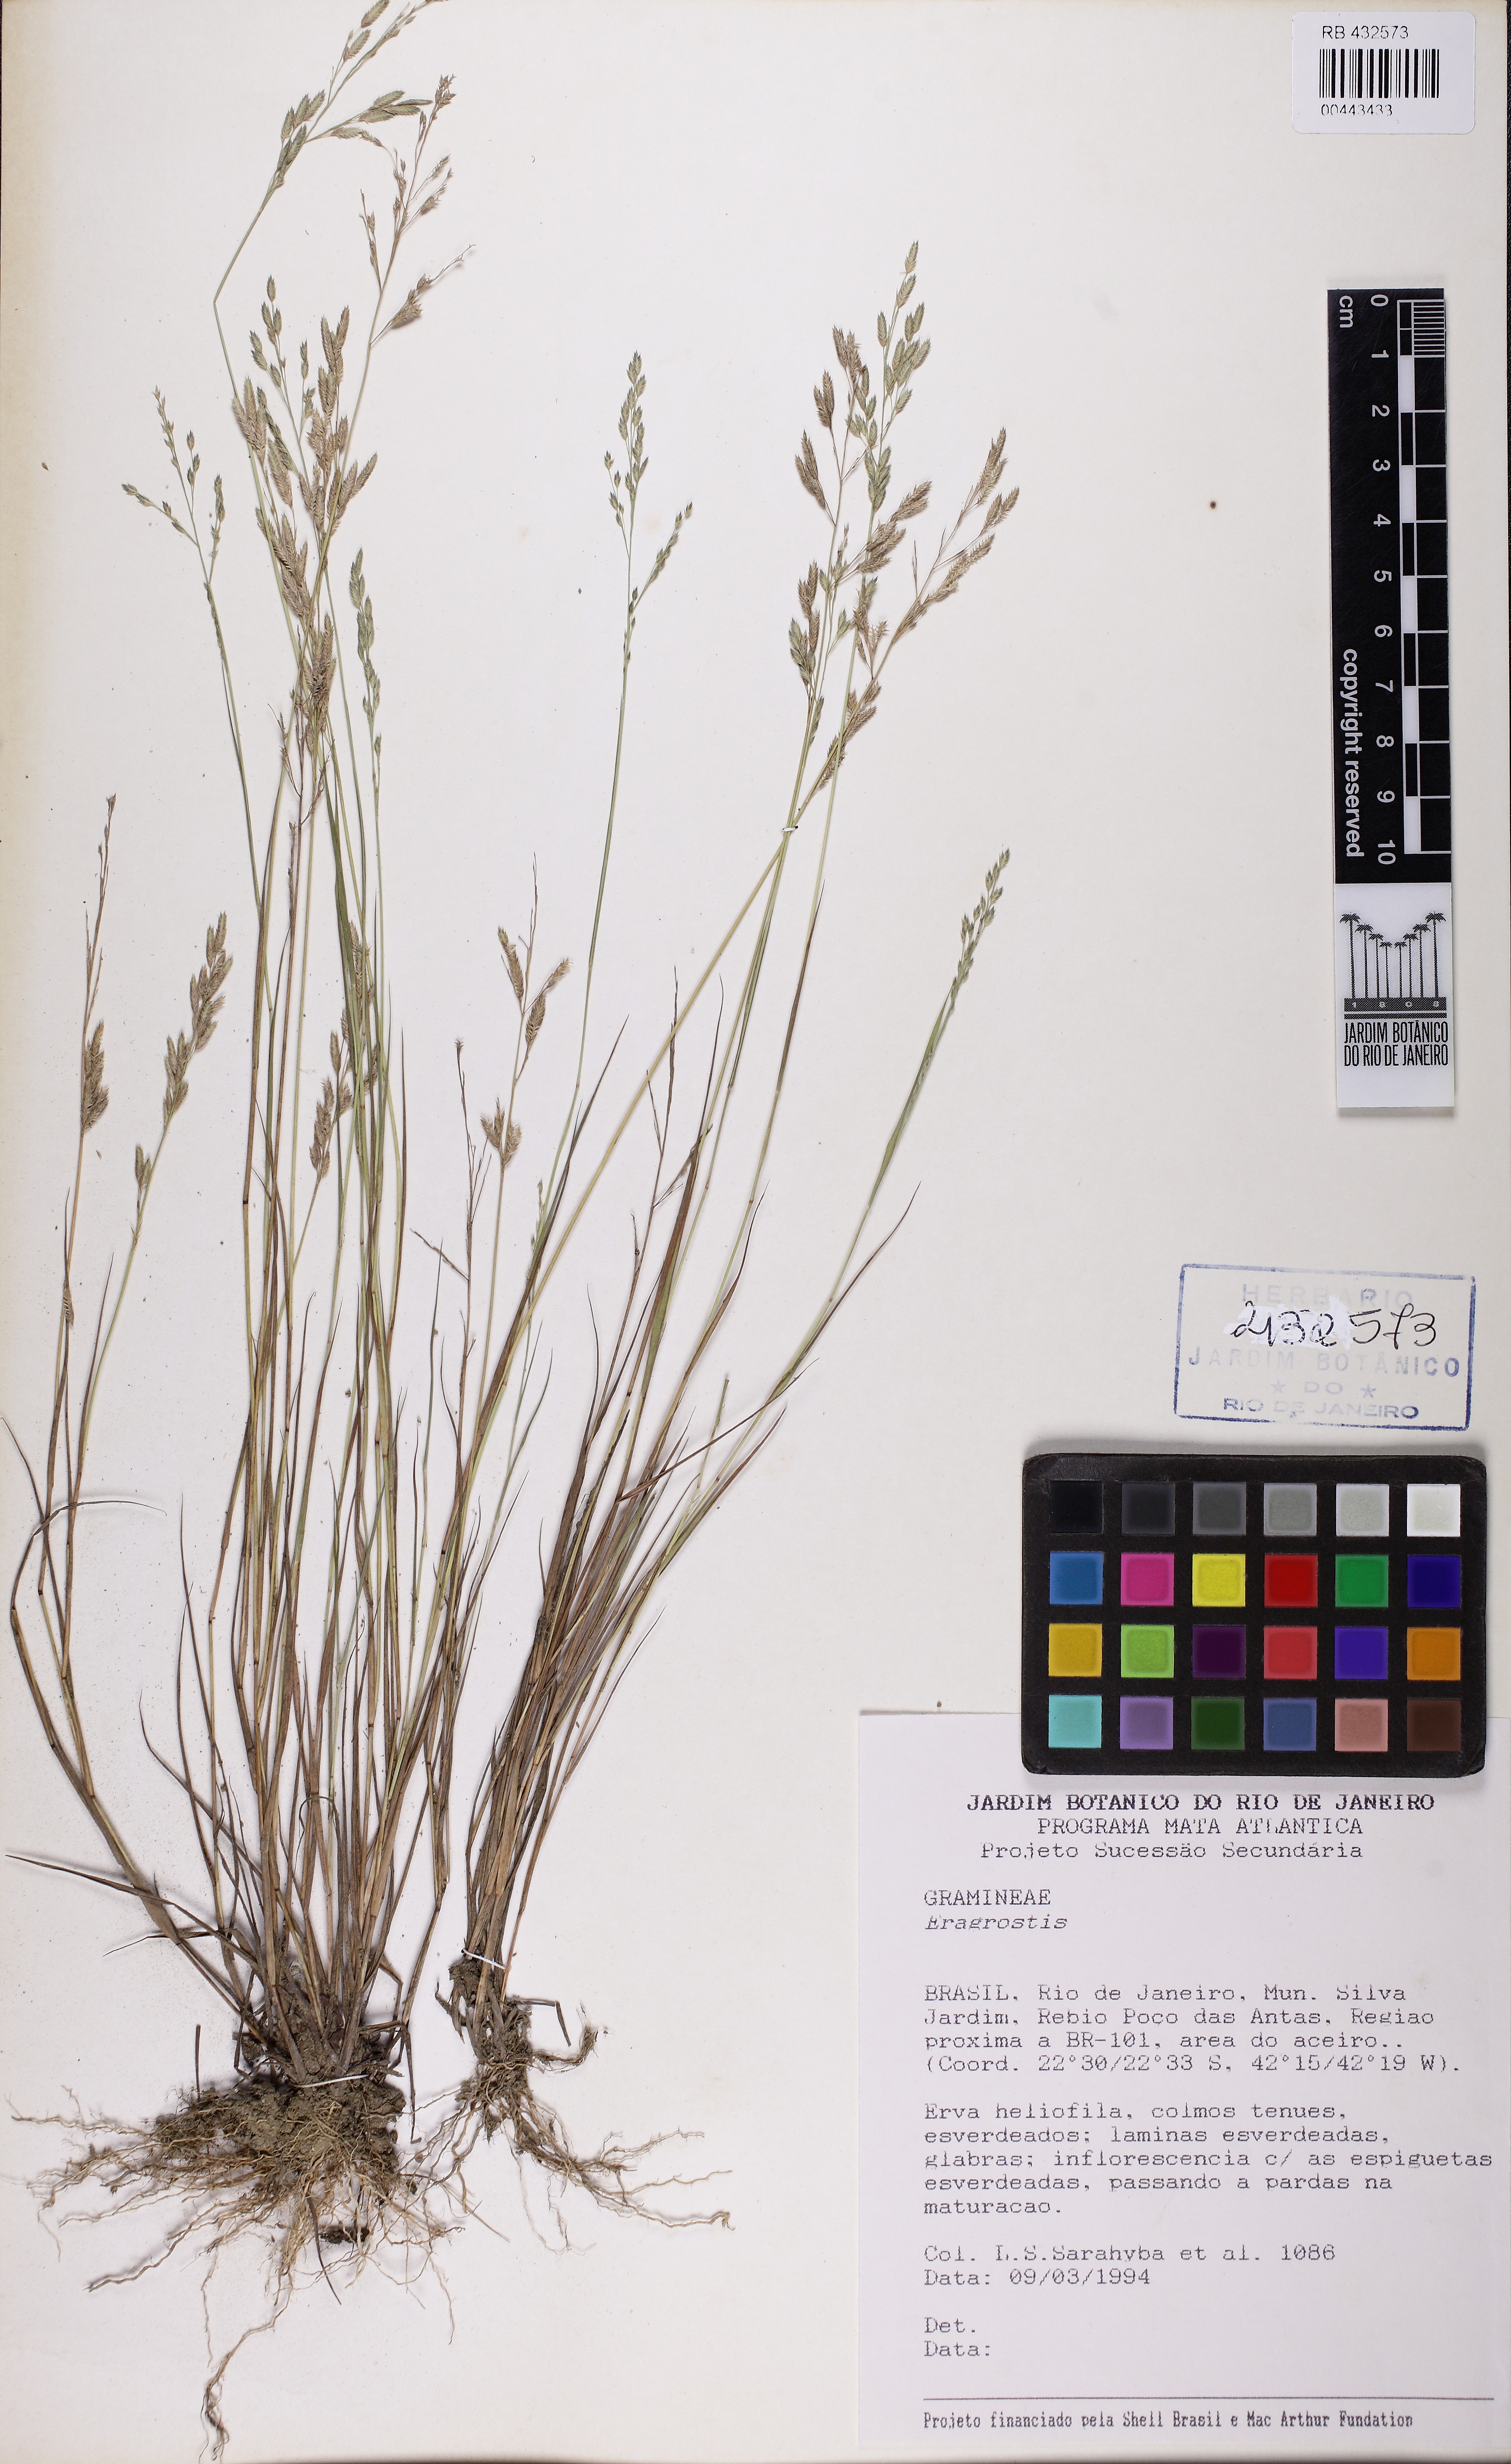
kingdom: Plantae
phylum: Tracheophyta
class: Liliopsida
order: Poales
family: Poaceae
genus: Eragrostis
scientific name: Eragrostis
